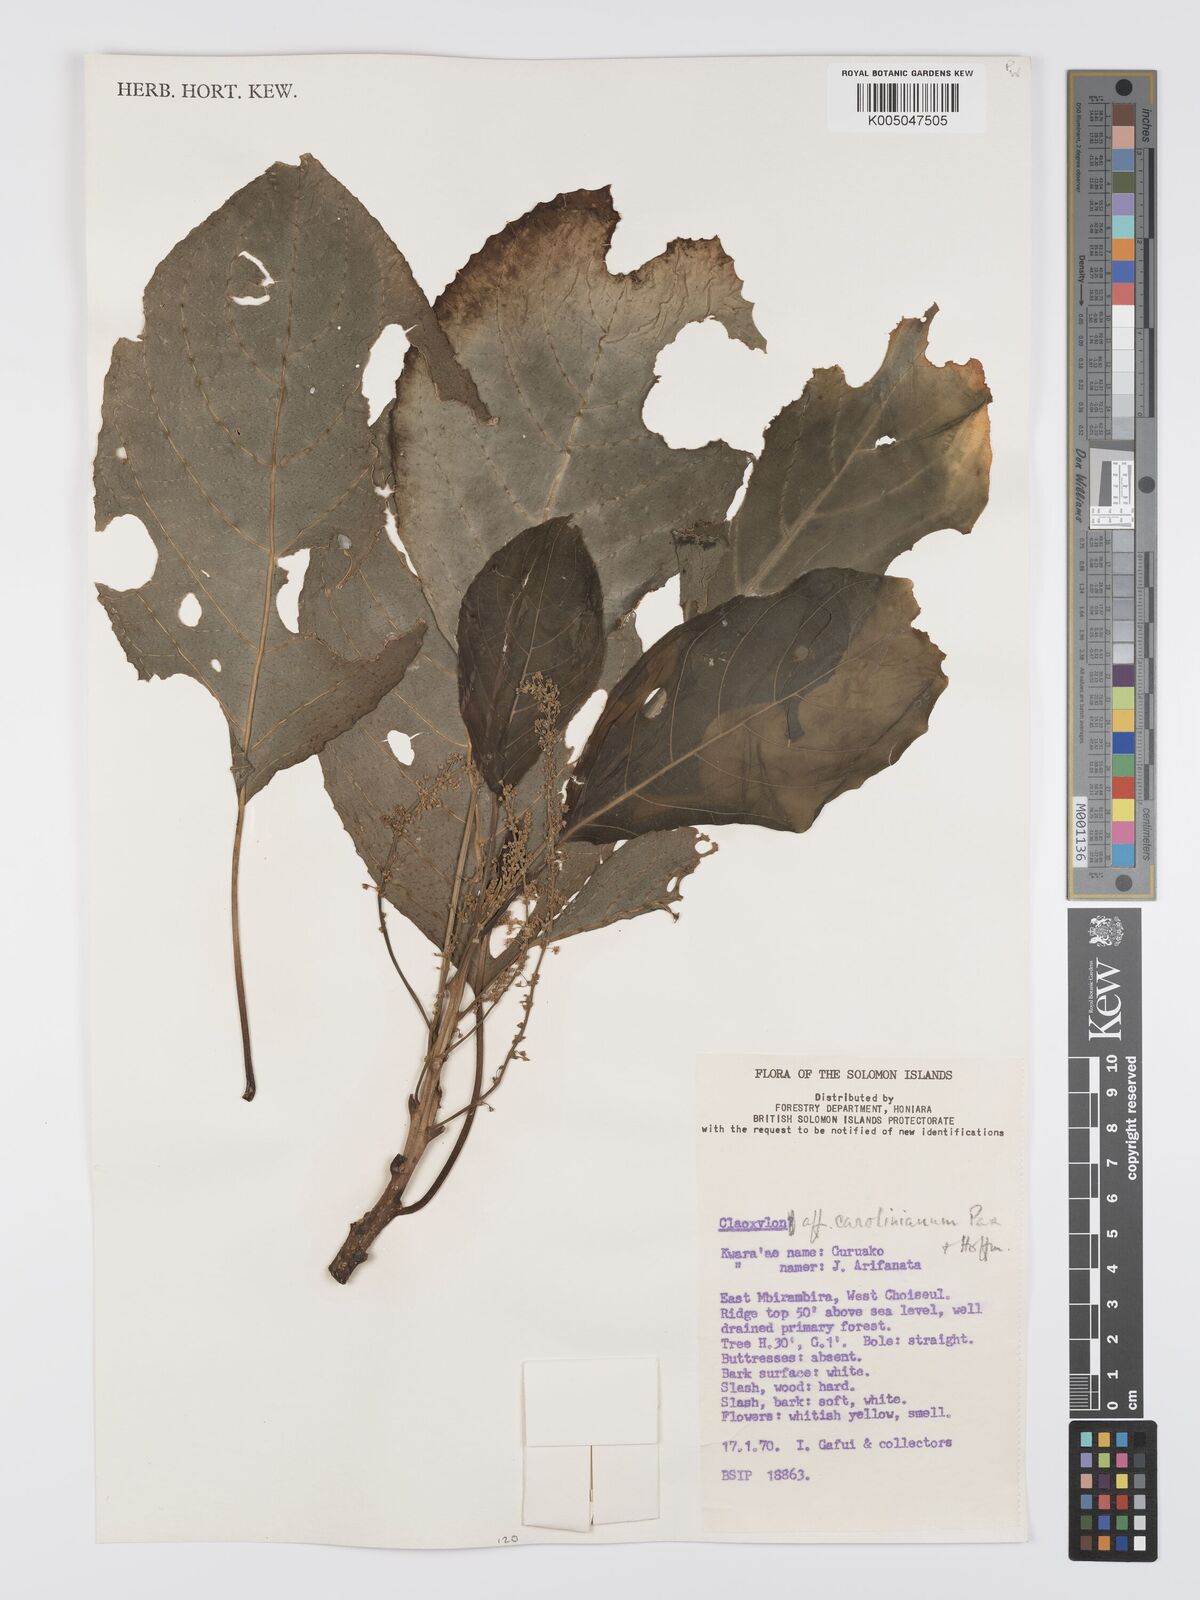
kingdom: Plantae
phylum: Tracheophyta
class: Magnoliopsida
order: Malpighiales
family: Euphorbiaceae
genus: Claoxylon
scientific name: Claoxylon carolinianum
